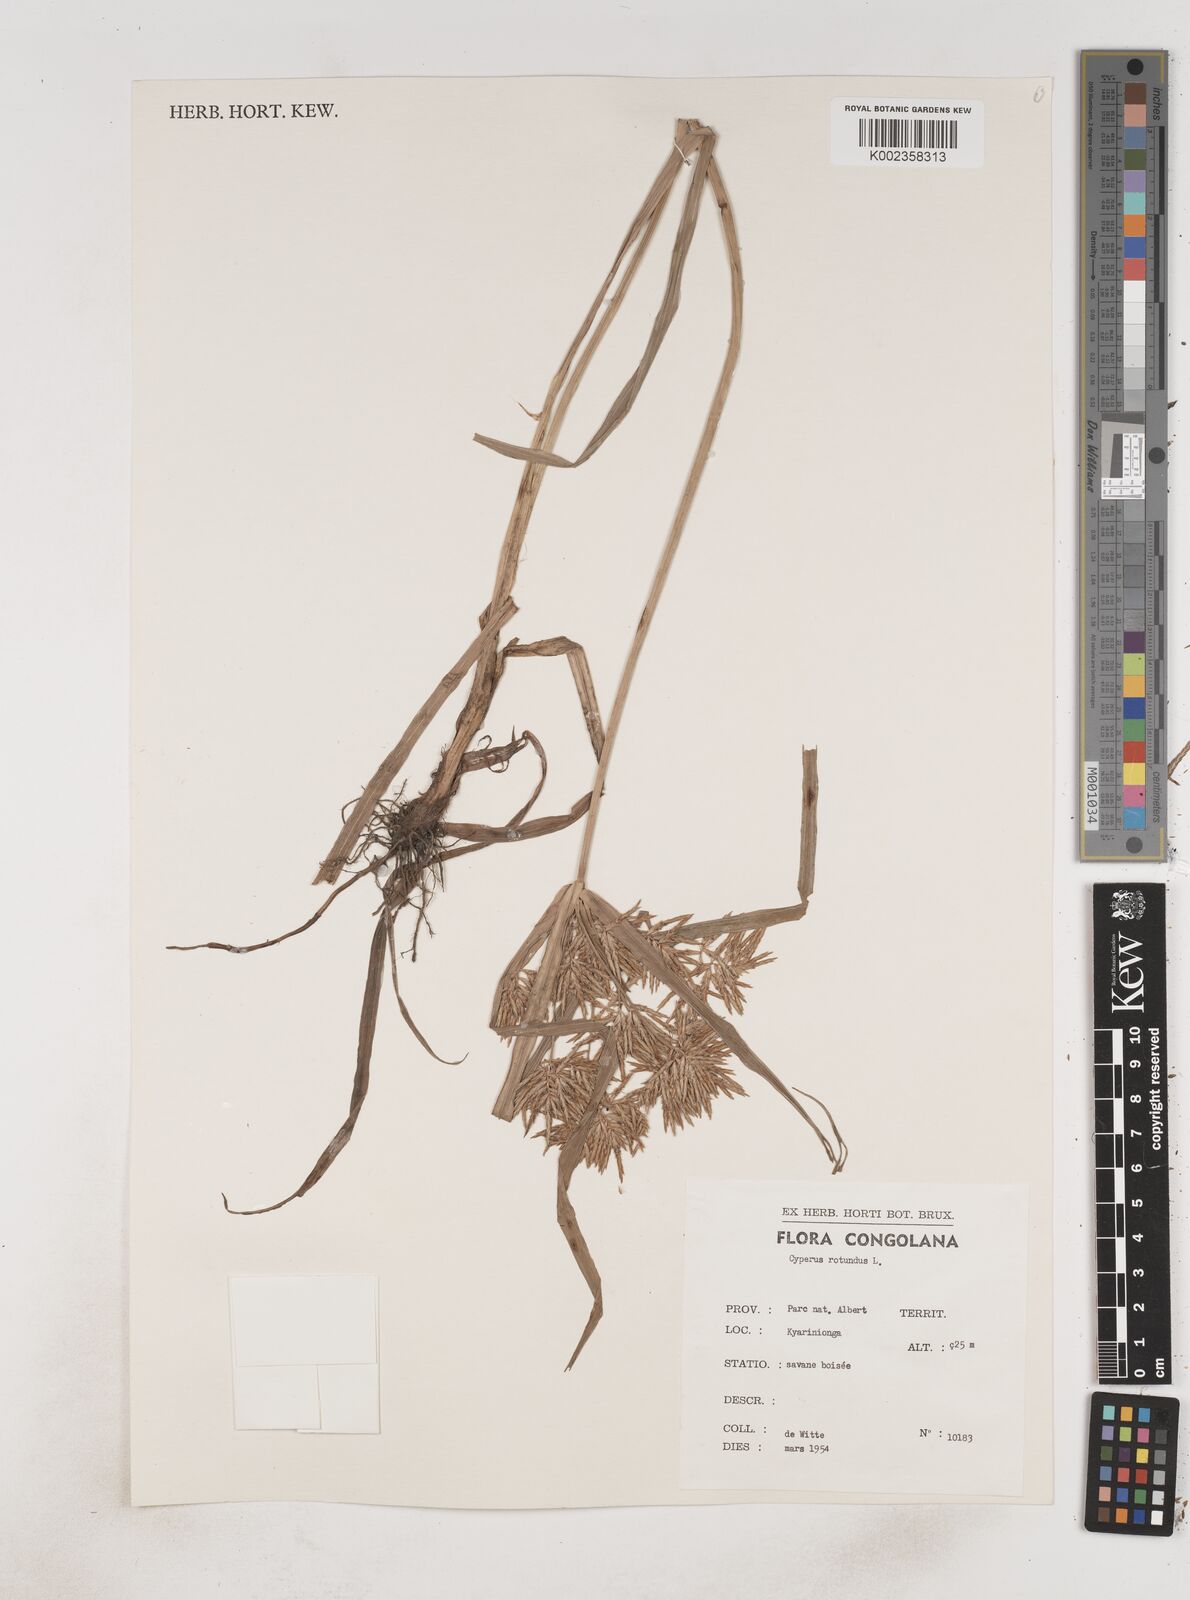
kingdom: Plantae
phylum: Tracheophyta
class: Liliopsida
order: Poales
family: Cyperaceae
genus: Cyperus
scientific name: Cyperus rotundus
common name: Nutgrass
